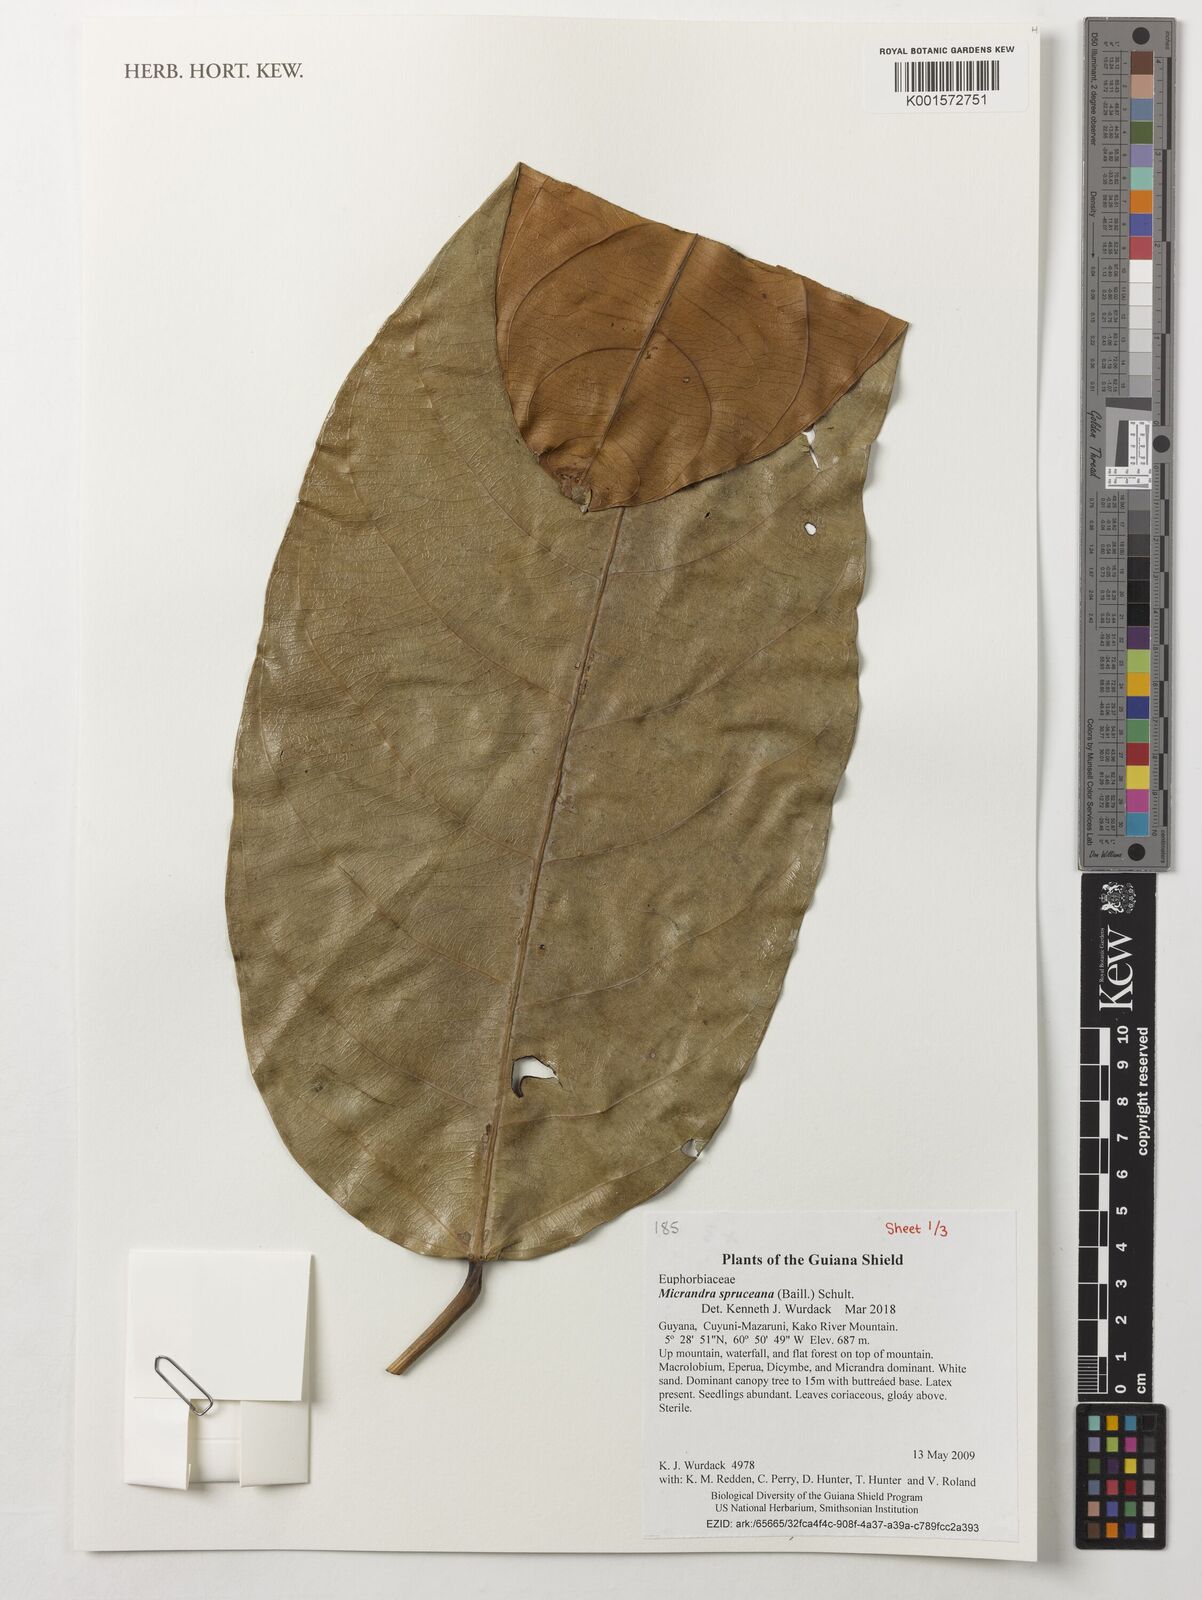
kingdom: Plantae
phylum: Tracheophyta
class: Magnoliopsida
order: Malpighiales
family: Euphorbiaceae
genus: Micrandra
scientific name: Micrandra spruceana
